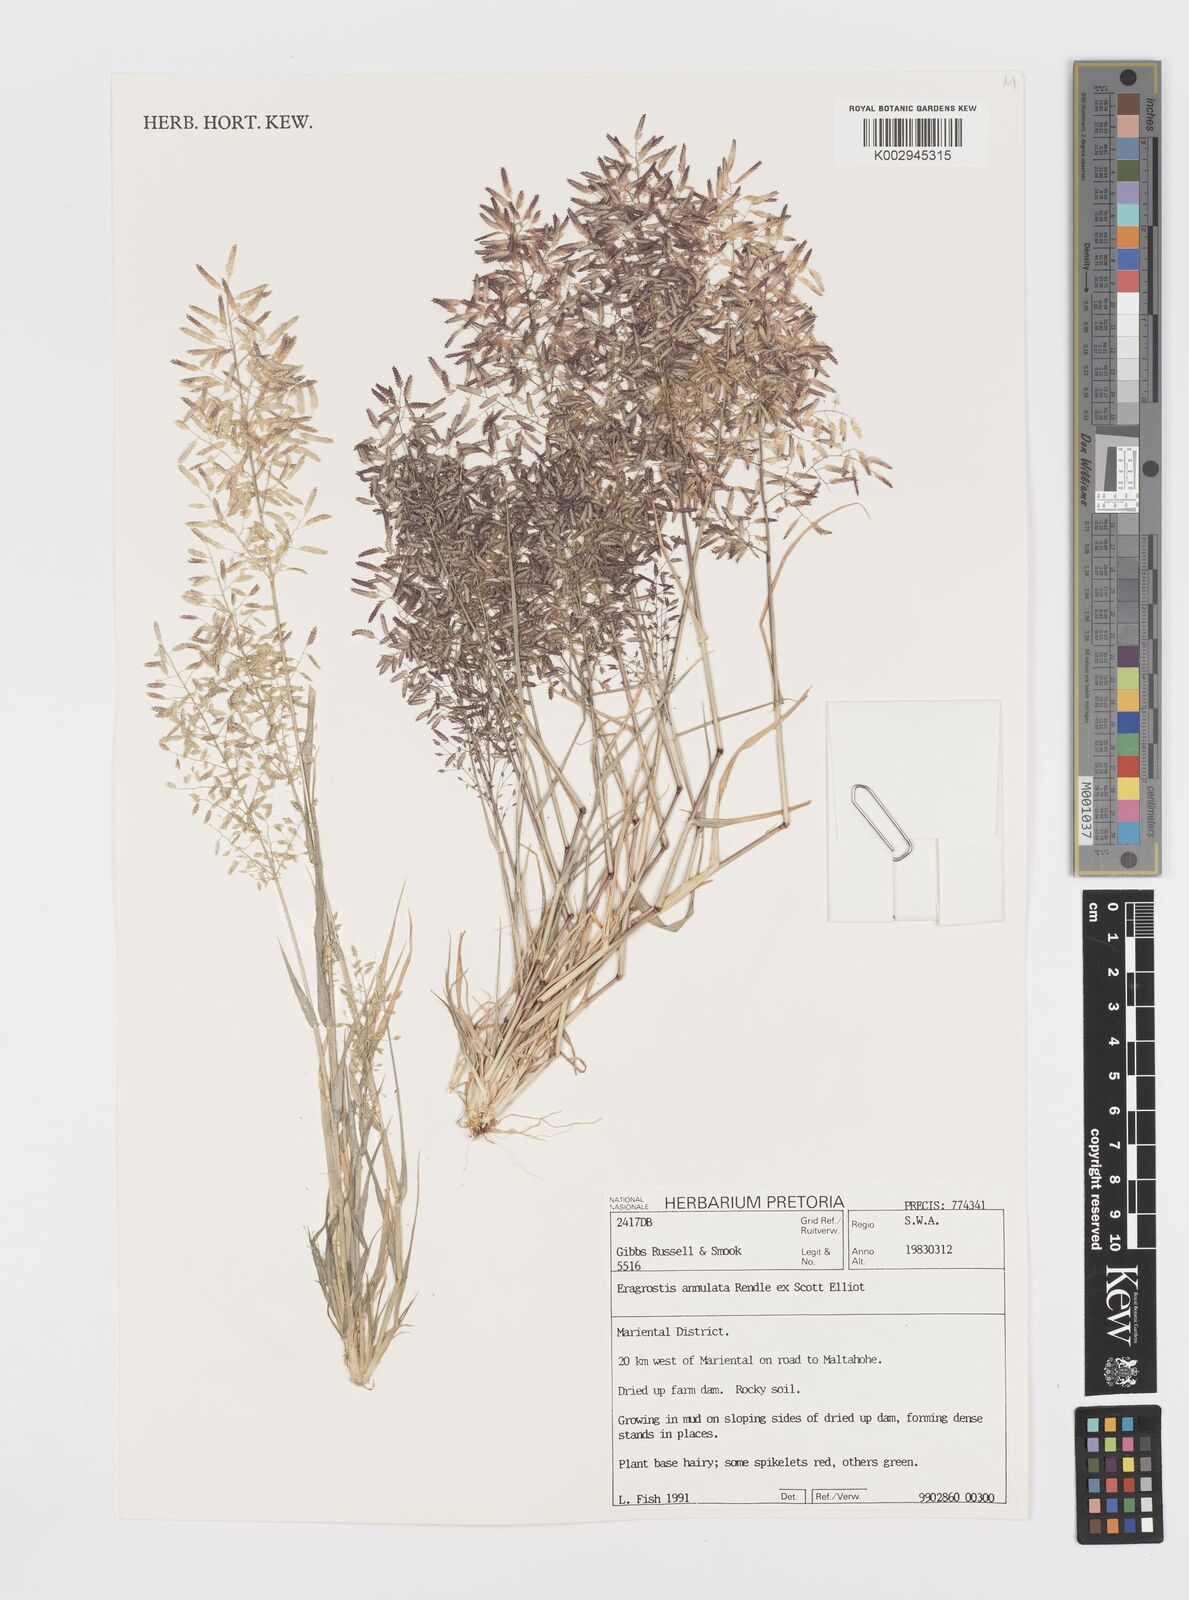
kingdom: Plantae
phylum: Tracheophyta
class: Liliopsida
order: Poales
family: Poaceae
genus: Eragrostis
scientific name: Eragrostis annulata
